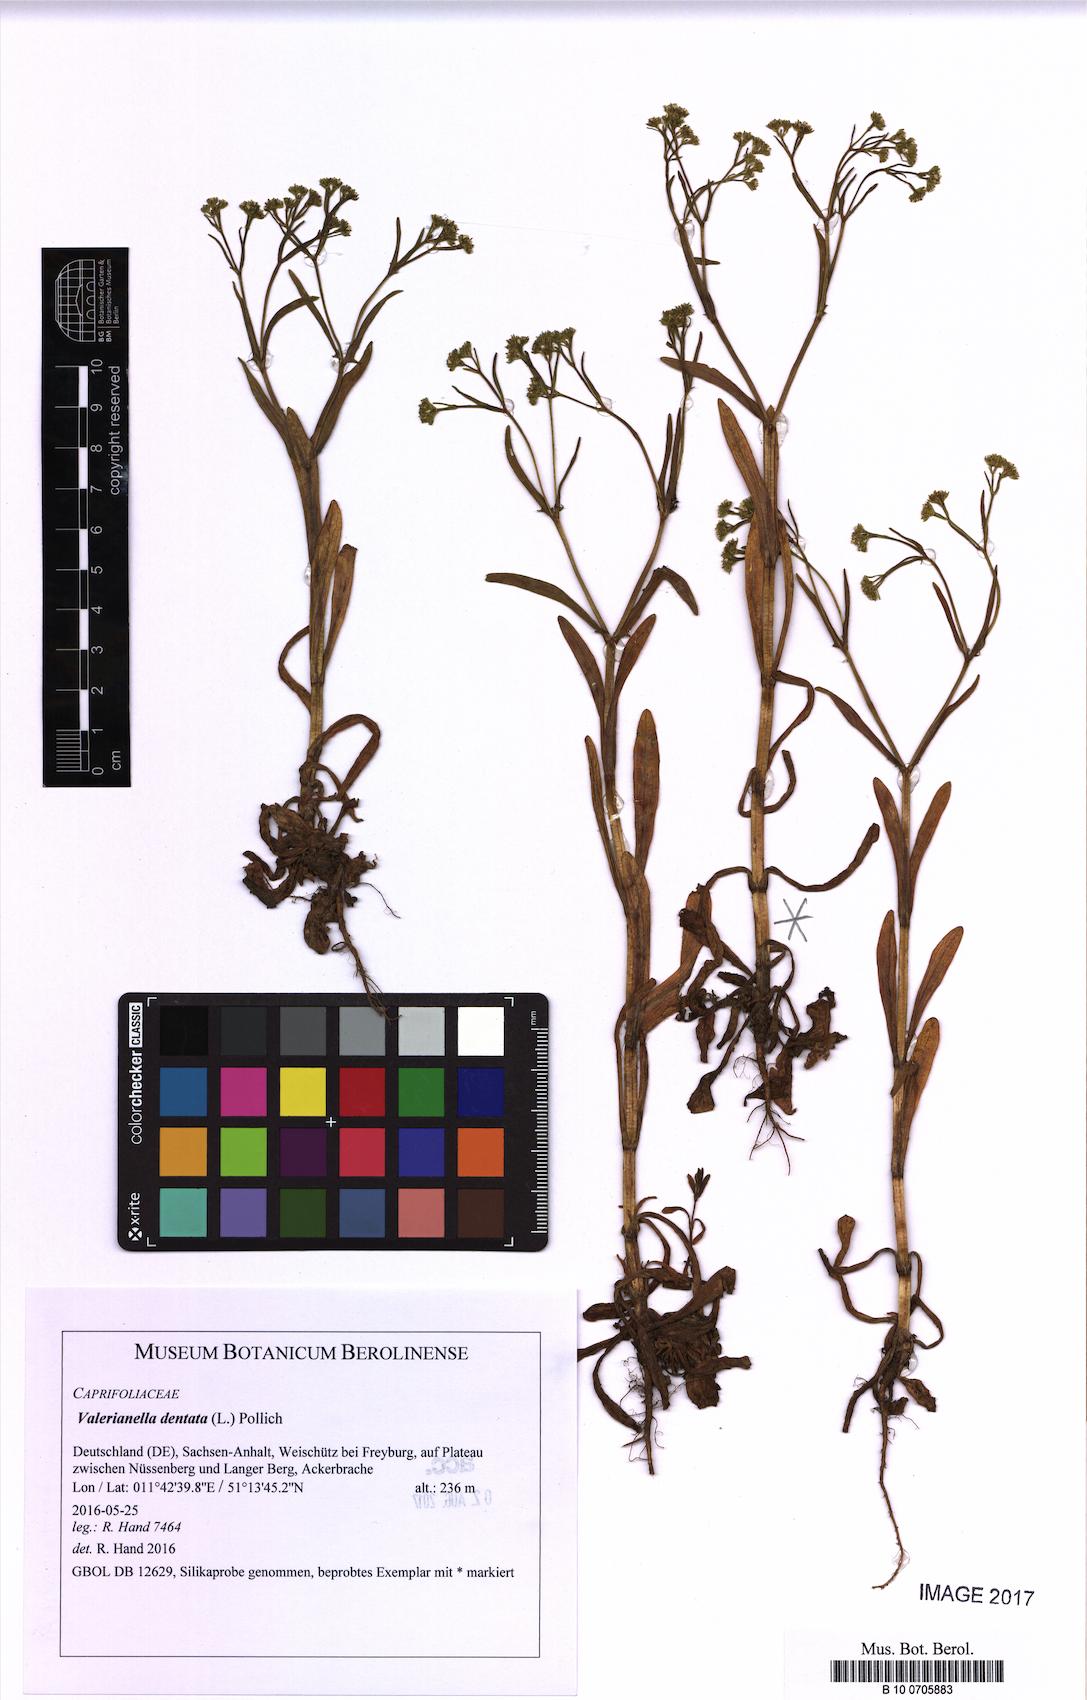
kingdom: Plantae
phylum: Tracheophyta
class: Magnoliopsida
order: Dipsacales
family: Caprifoliaceae
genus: Valerianella
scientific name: Valerianella dentata
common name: Narrow-fruited cornsalad
